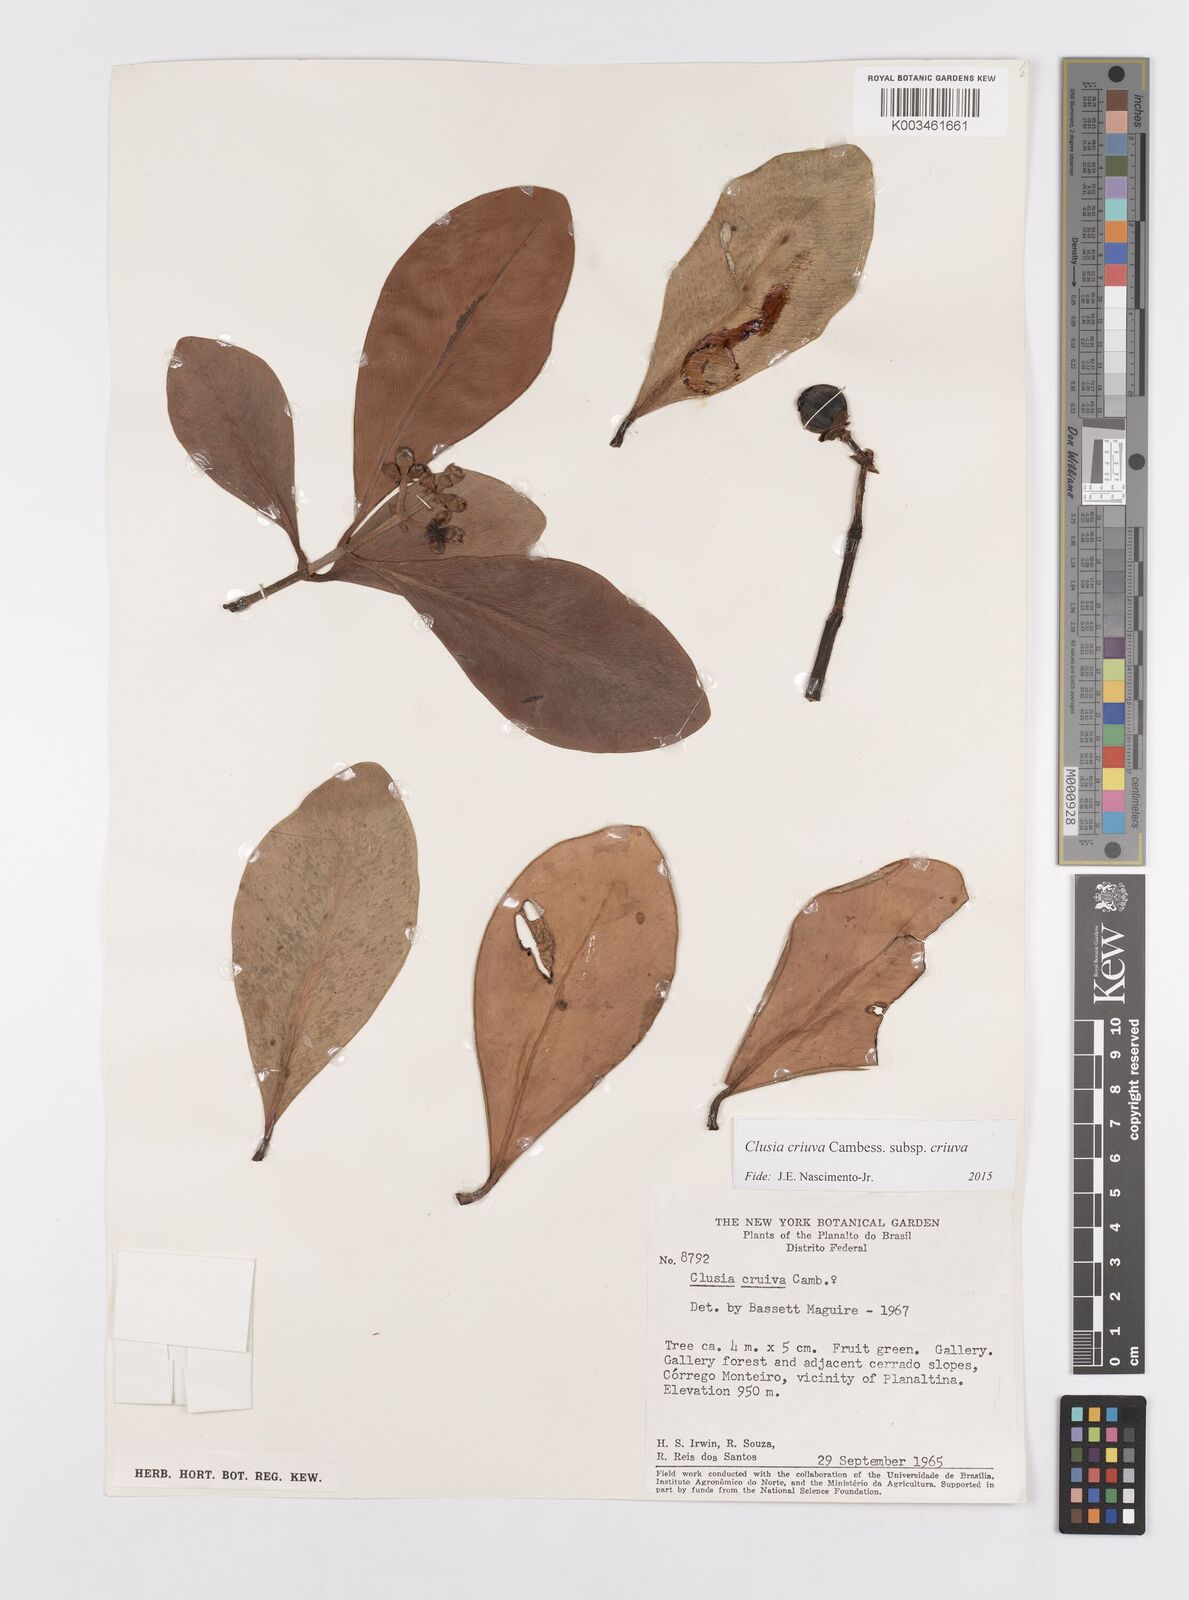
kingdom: Plantae
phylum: Tracheophyta
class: Magnoliopsida
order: Malpighiales
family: Clusiaceae
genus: Clusia
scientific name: Clusia criuva
